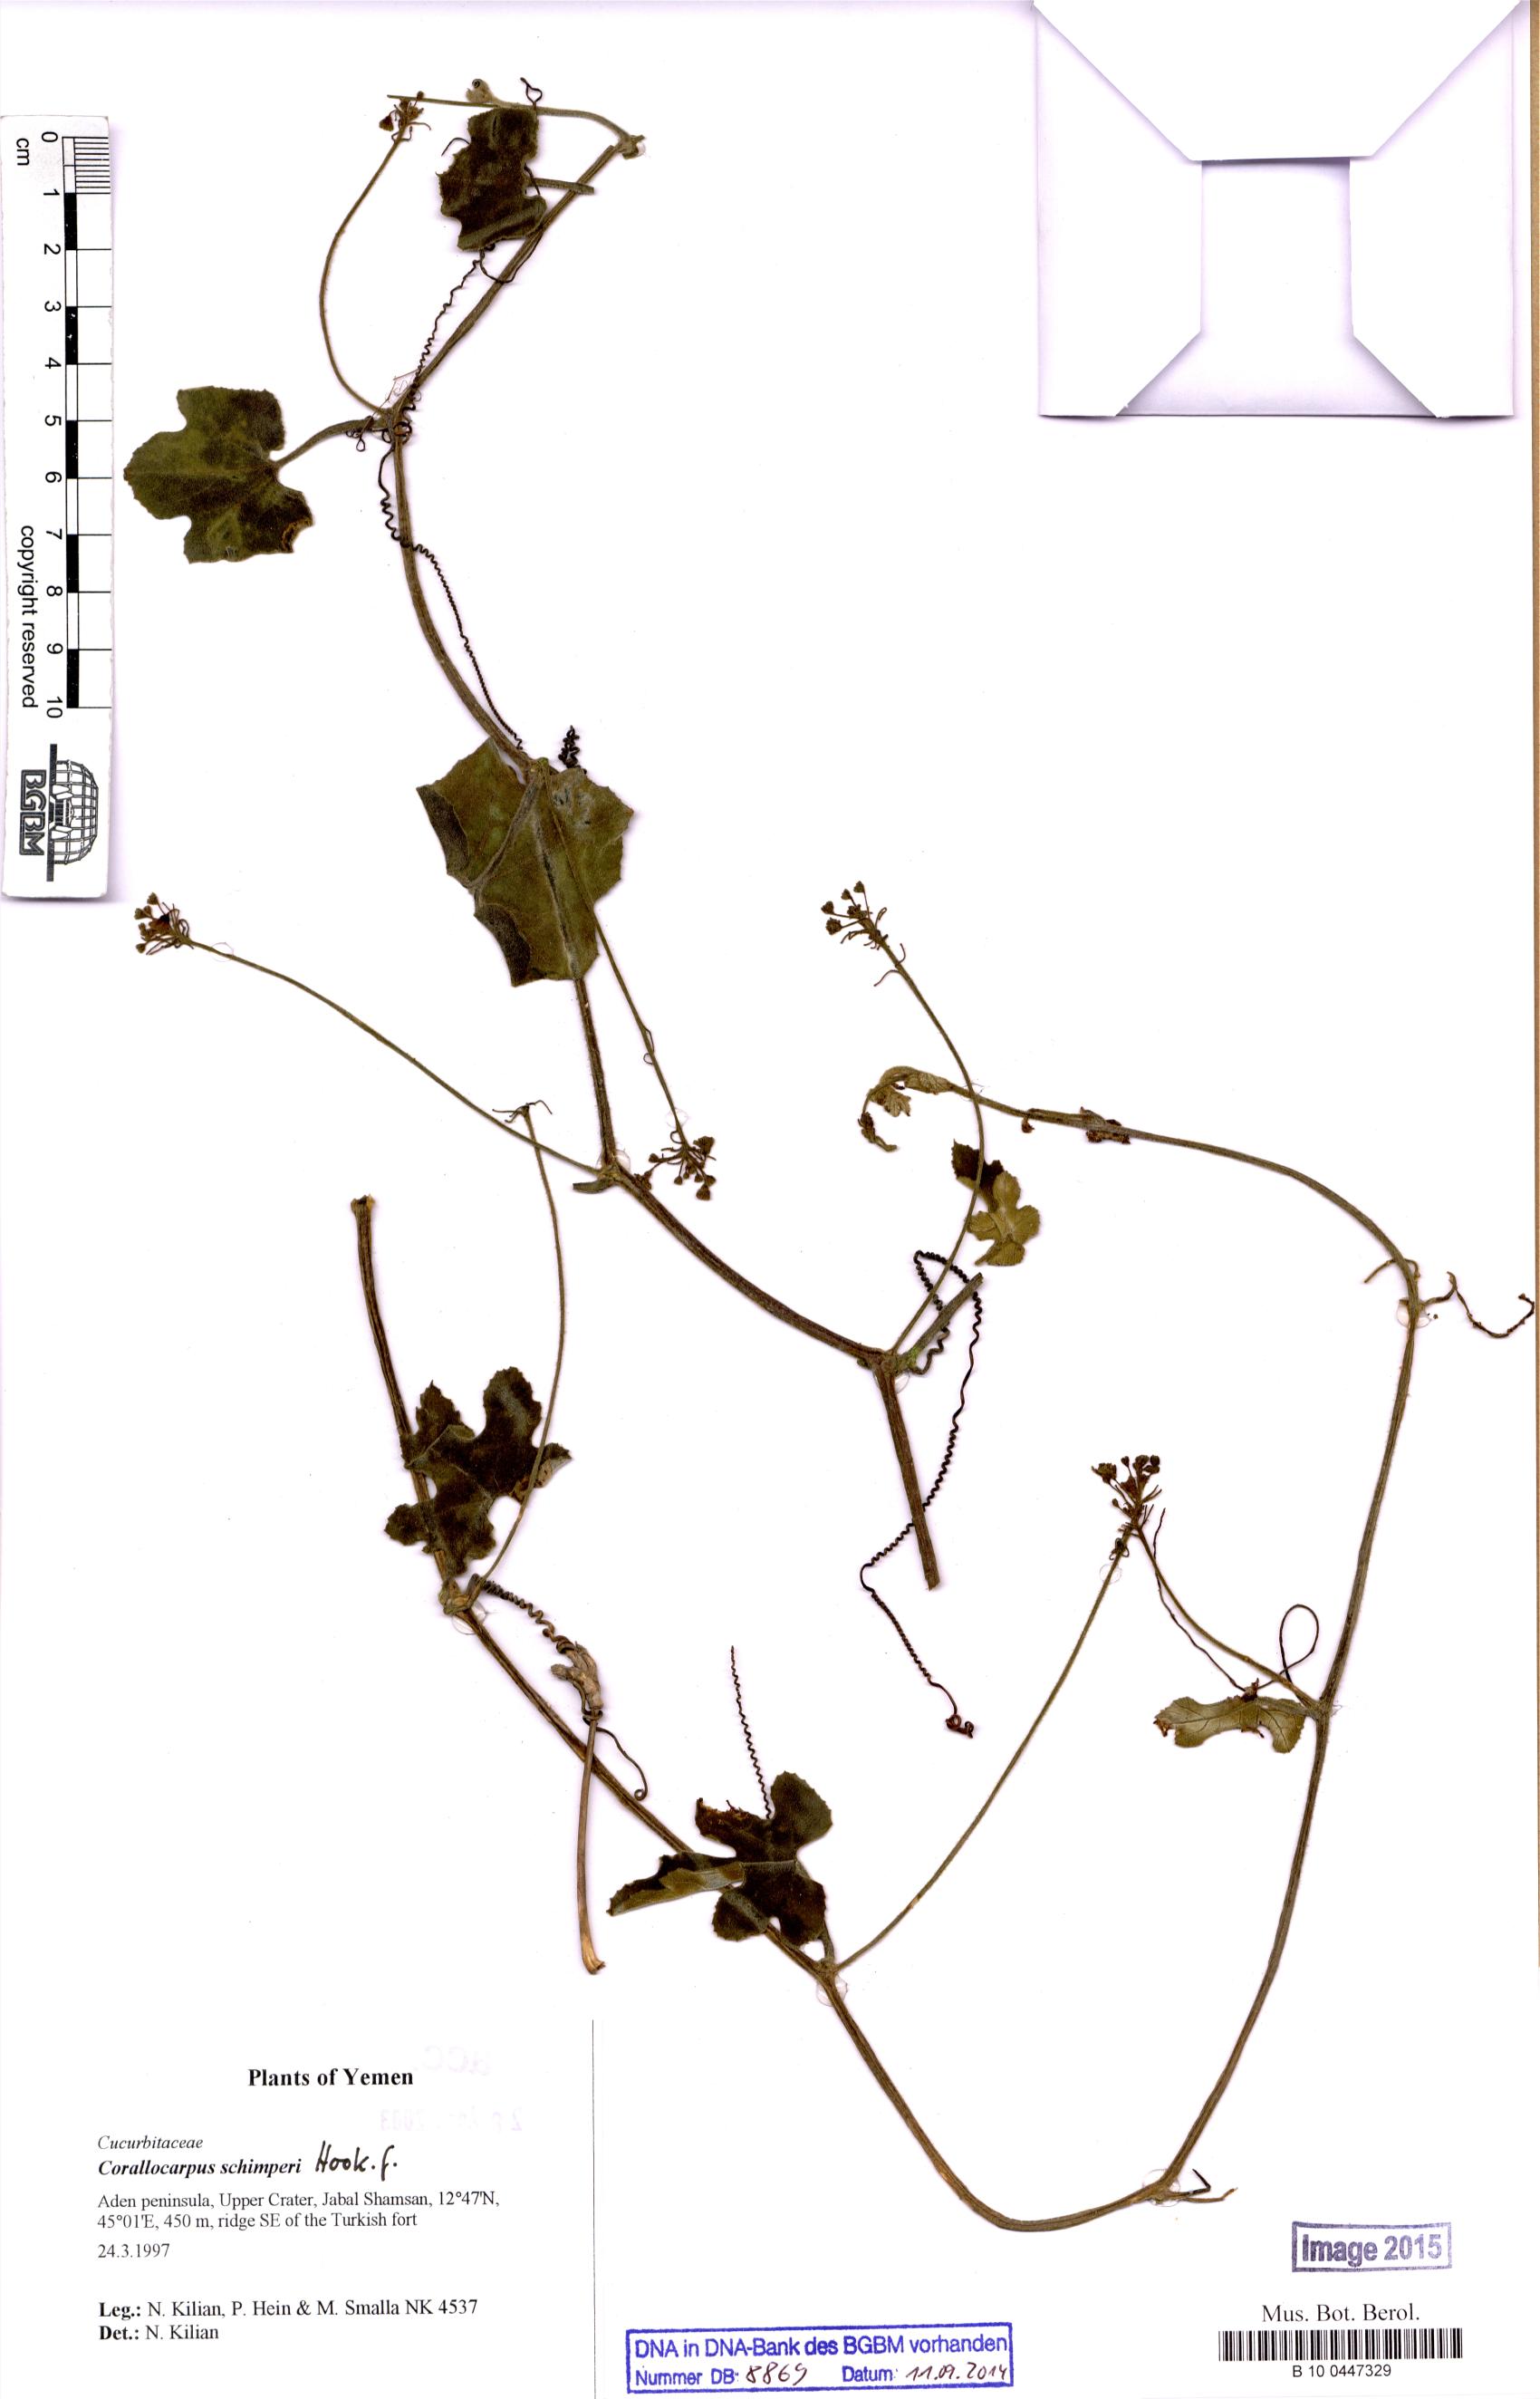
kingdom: Plantae
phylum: Tracheophyta
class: Magnoliopsida
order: Cucurbitales
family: Cucurbitaceae
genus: Corallocarpus
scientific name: Corallocarpus schimperi
